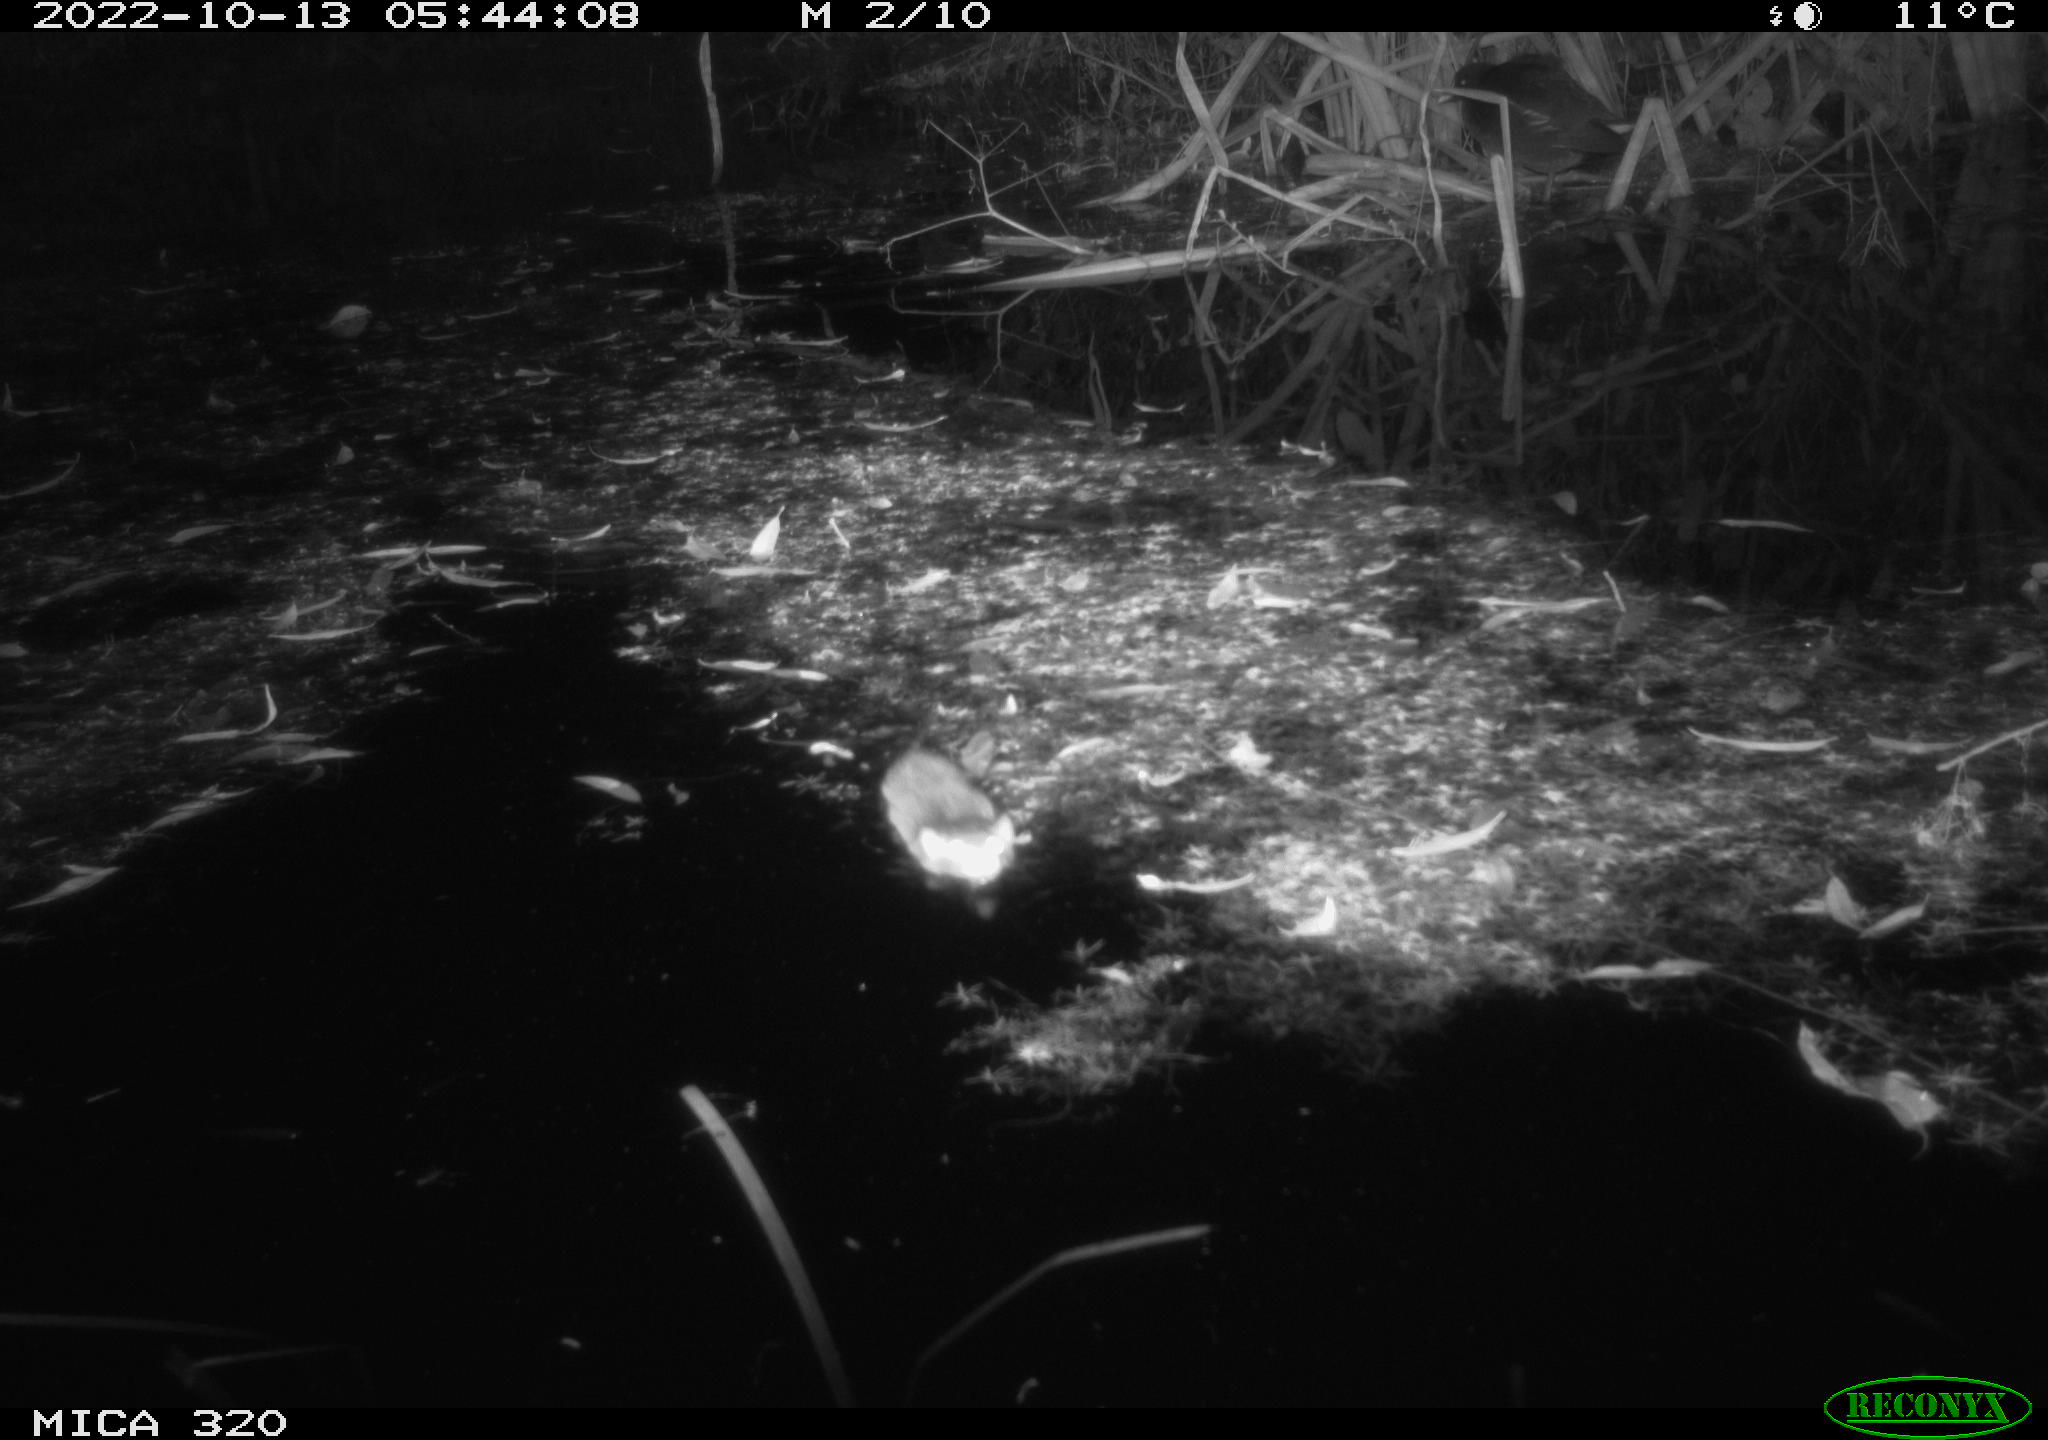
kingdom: Animalia
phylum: Chordata
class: Mammalia
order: Rodentia
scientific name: Rodentia
